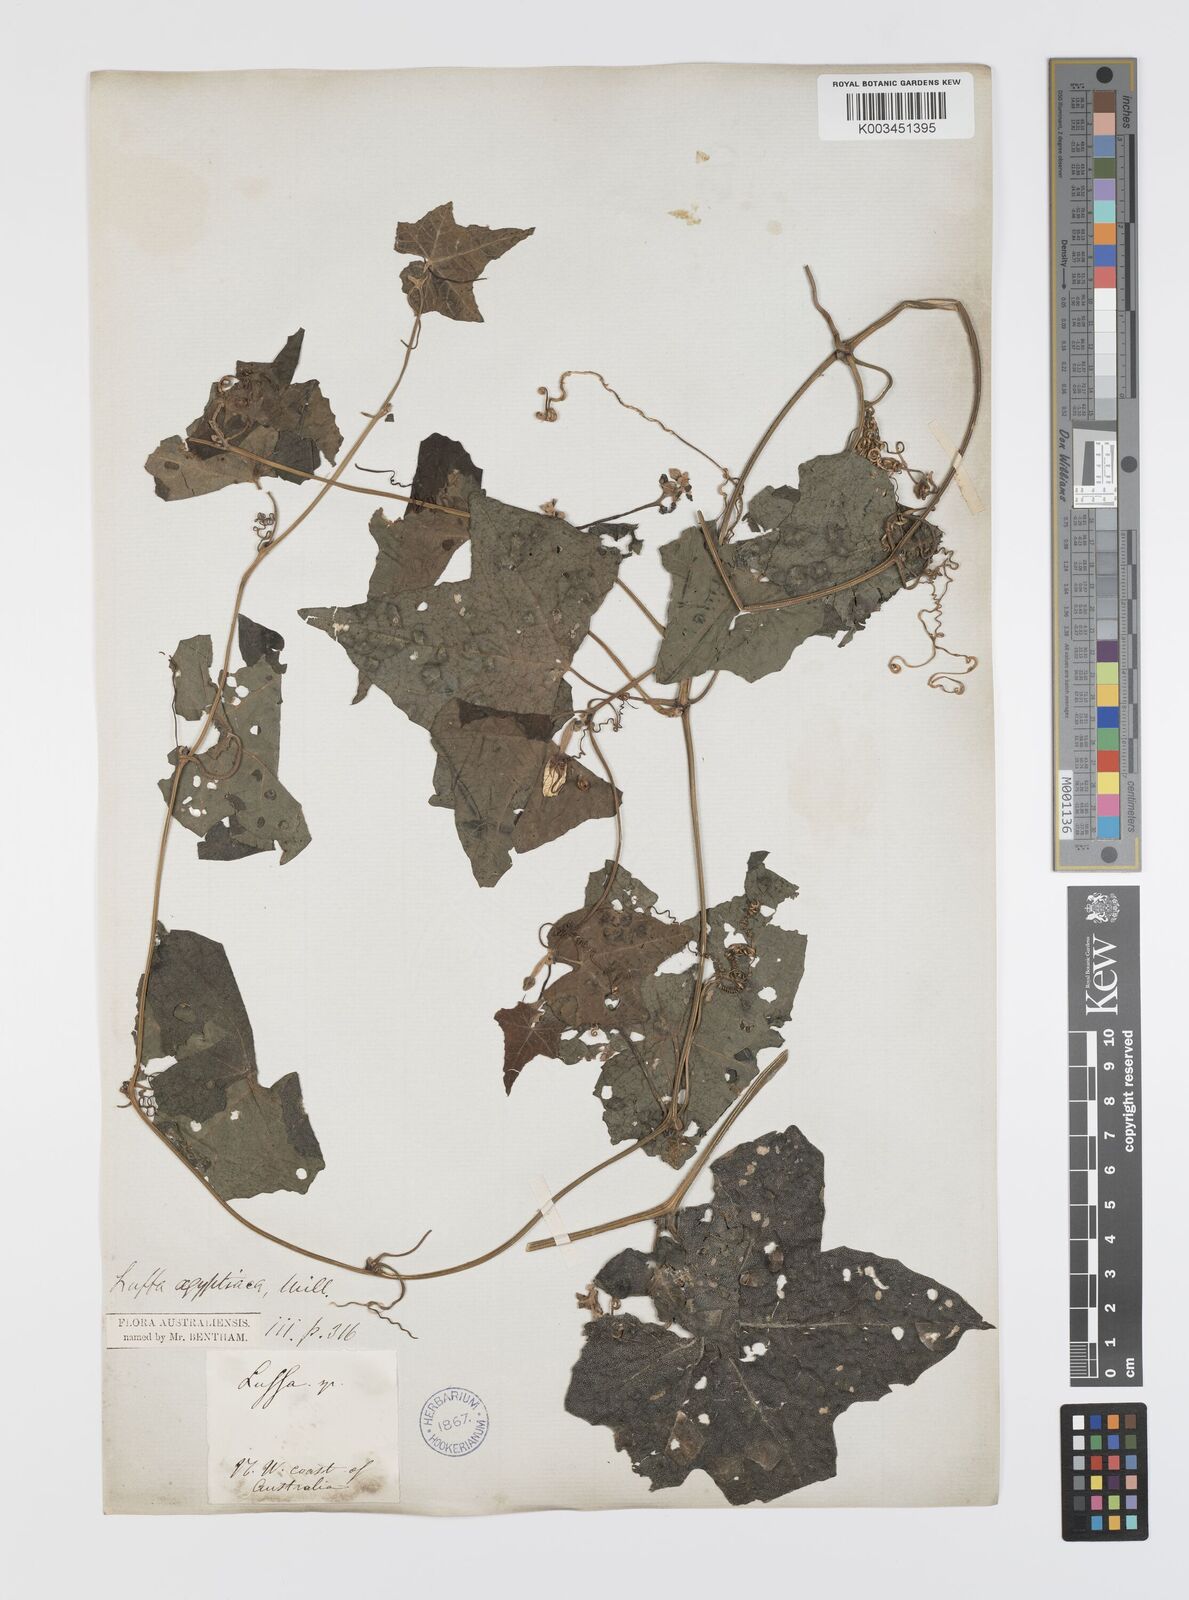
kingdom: Plantae
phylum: Tracheophyta
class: Magnoliopsida
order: Cucurbitales
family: Cucurbitaceae
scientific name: Cucurbitaceae
